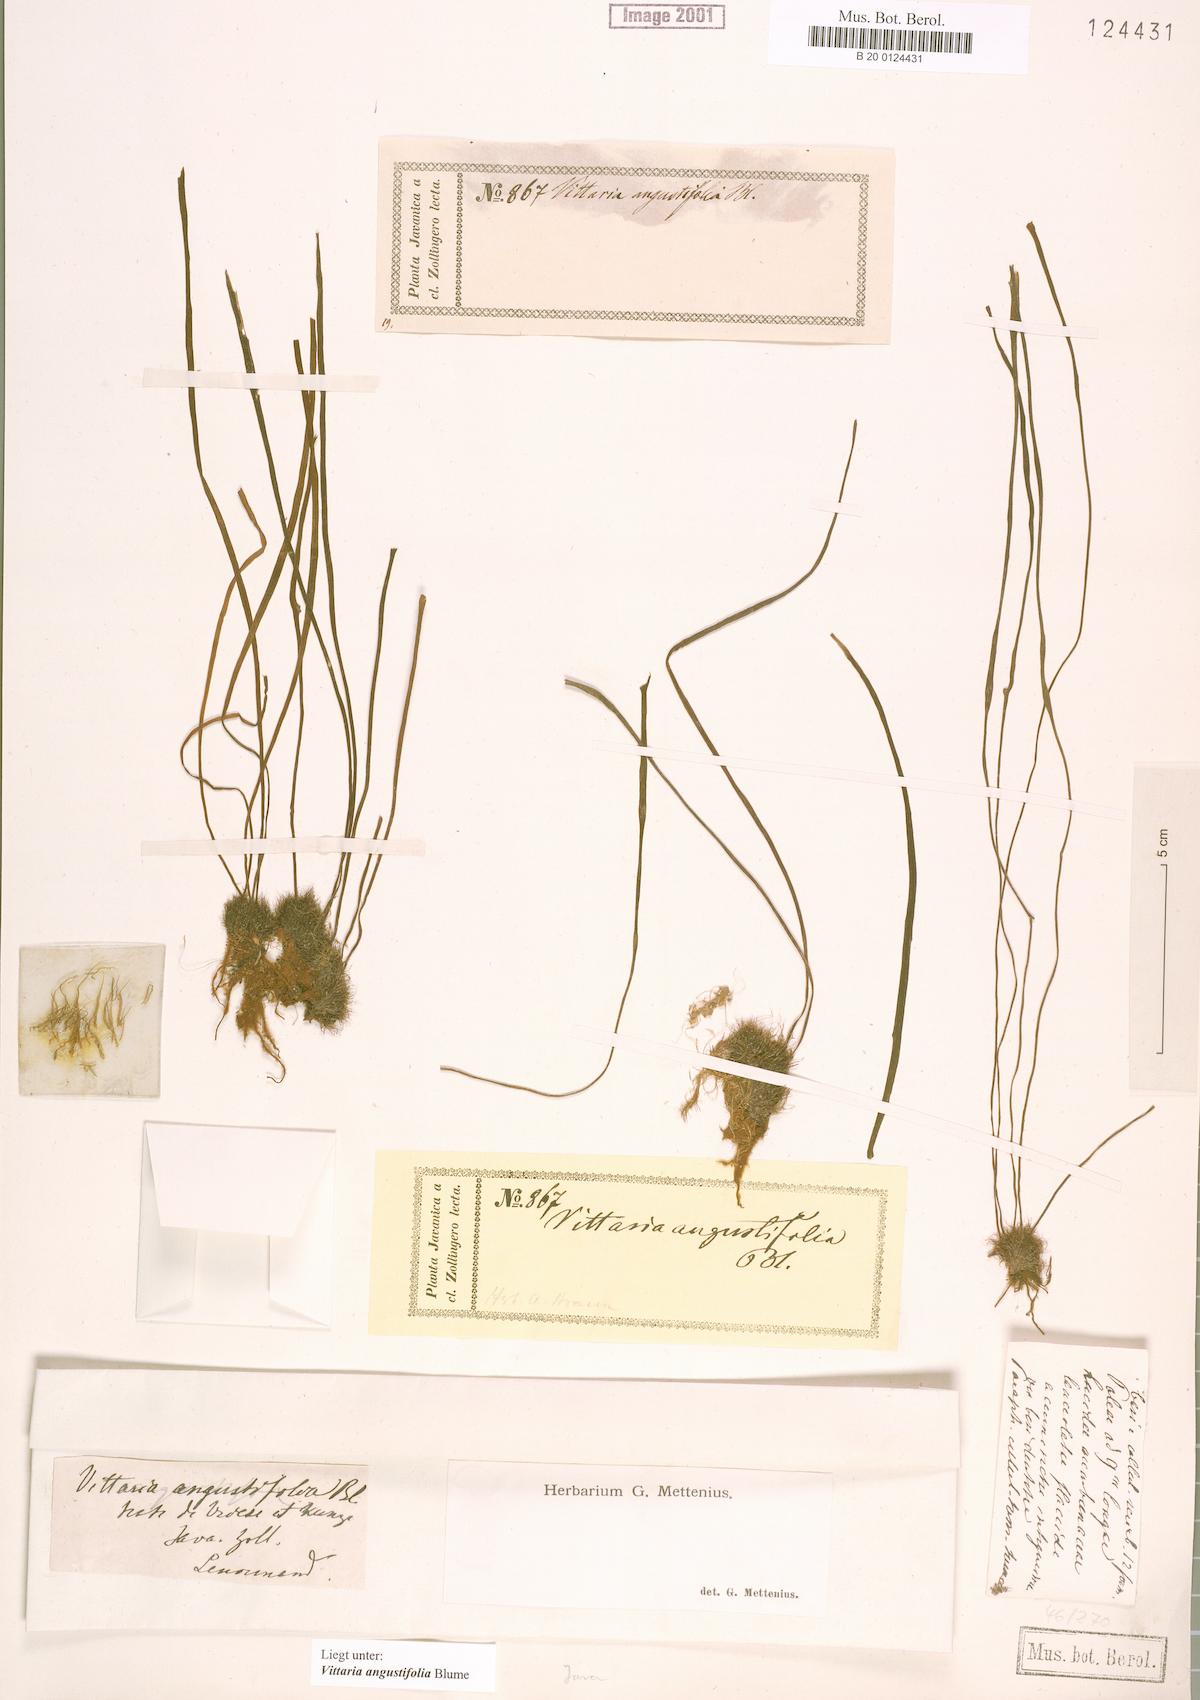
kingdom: Plantae
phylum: Tracheophyta
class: Polypodiopsida
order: Polypodiales
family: Pteridaceae
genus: Ananthacorus
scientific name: Ananthacorus angustifolius
